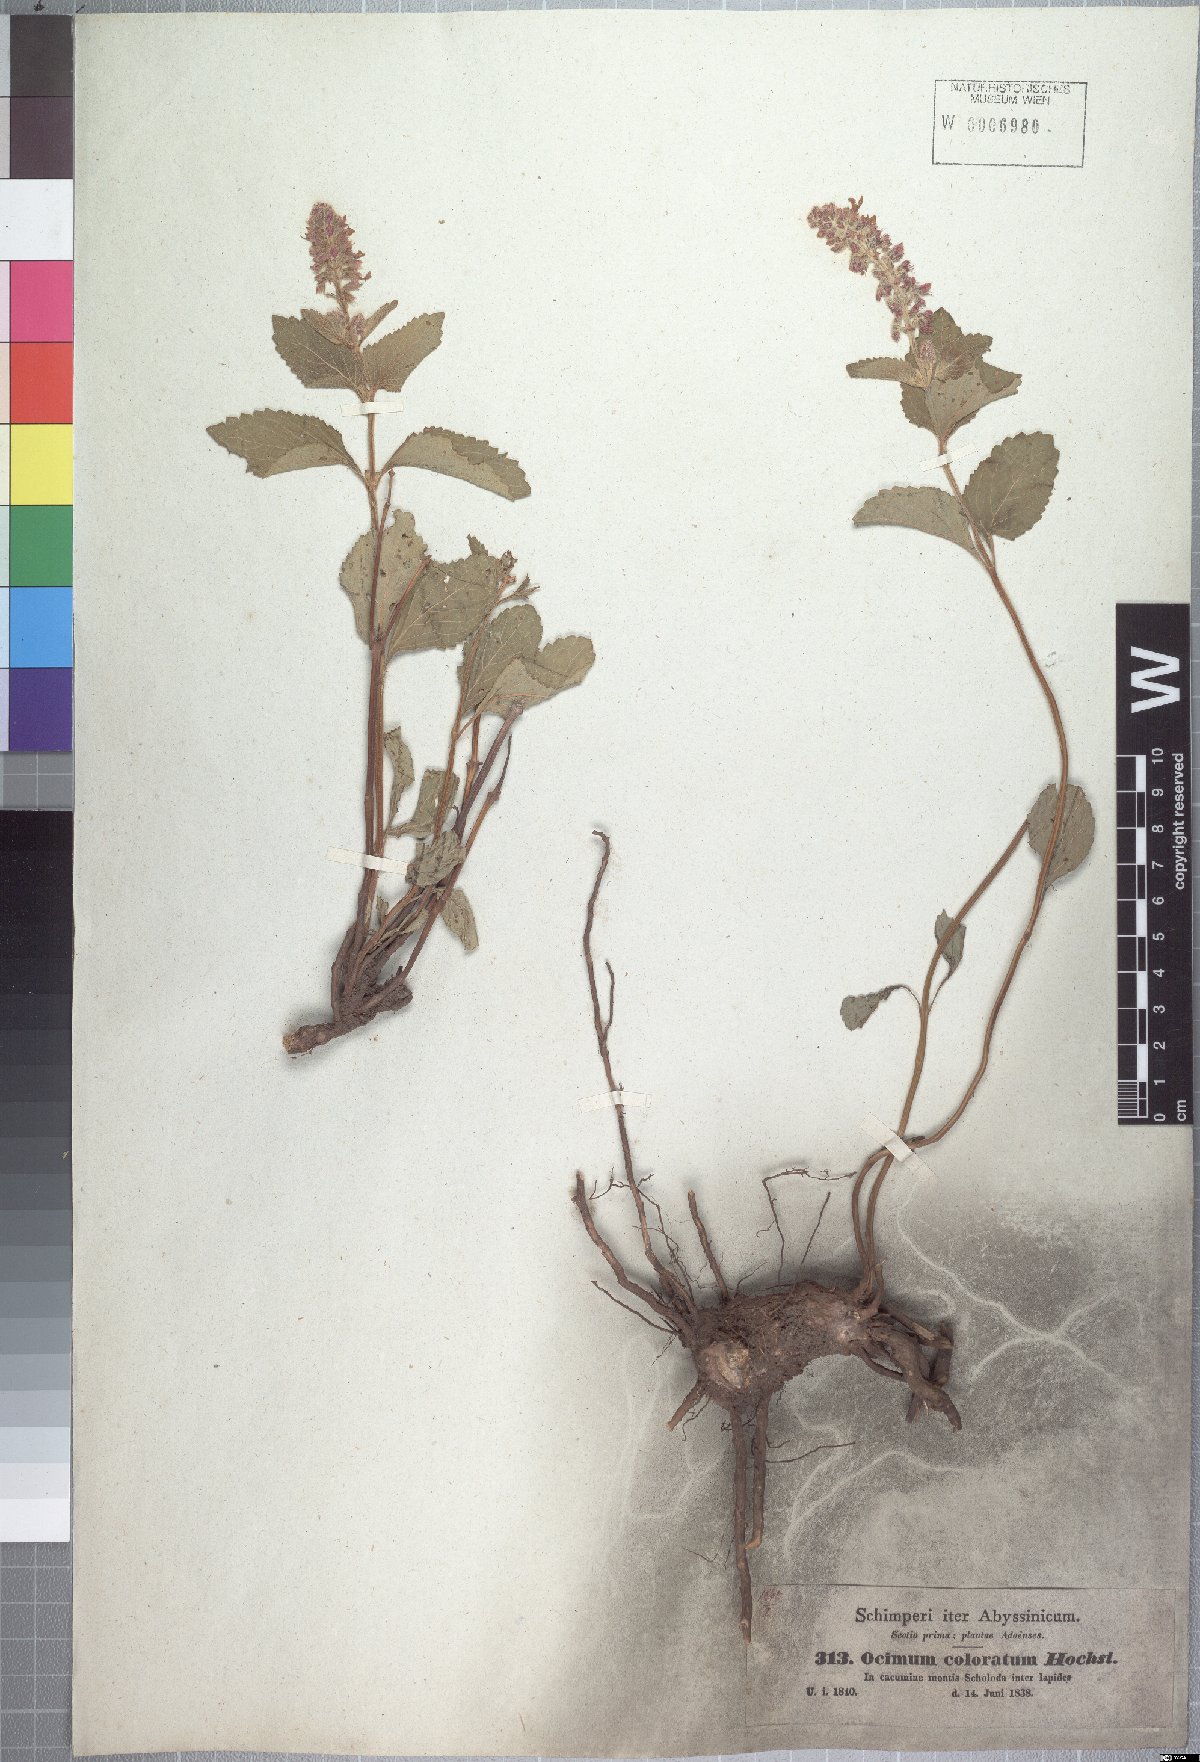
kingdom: Plantae
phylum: Tracheophyta
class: Magnoliopsida
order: Lamiales
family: Lamiaceae
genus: Orthosiphon
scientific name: Orthosiphon schimperi
